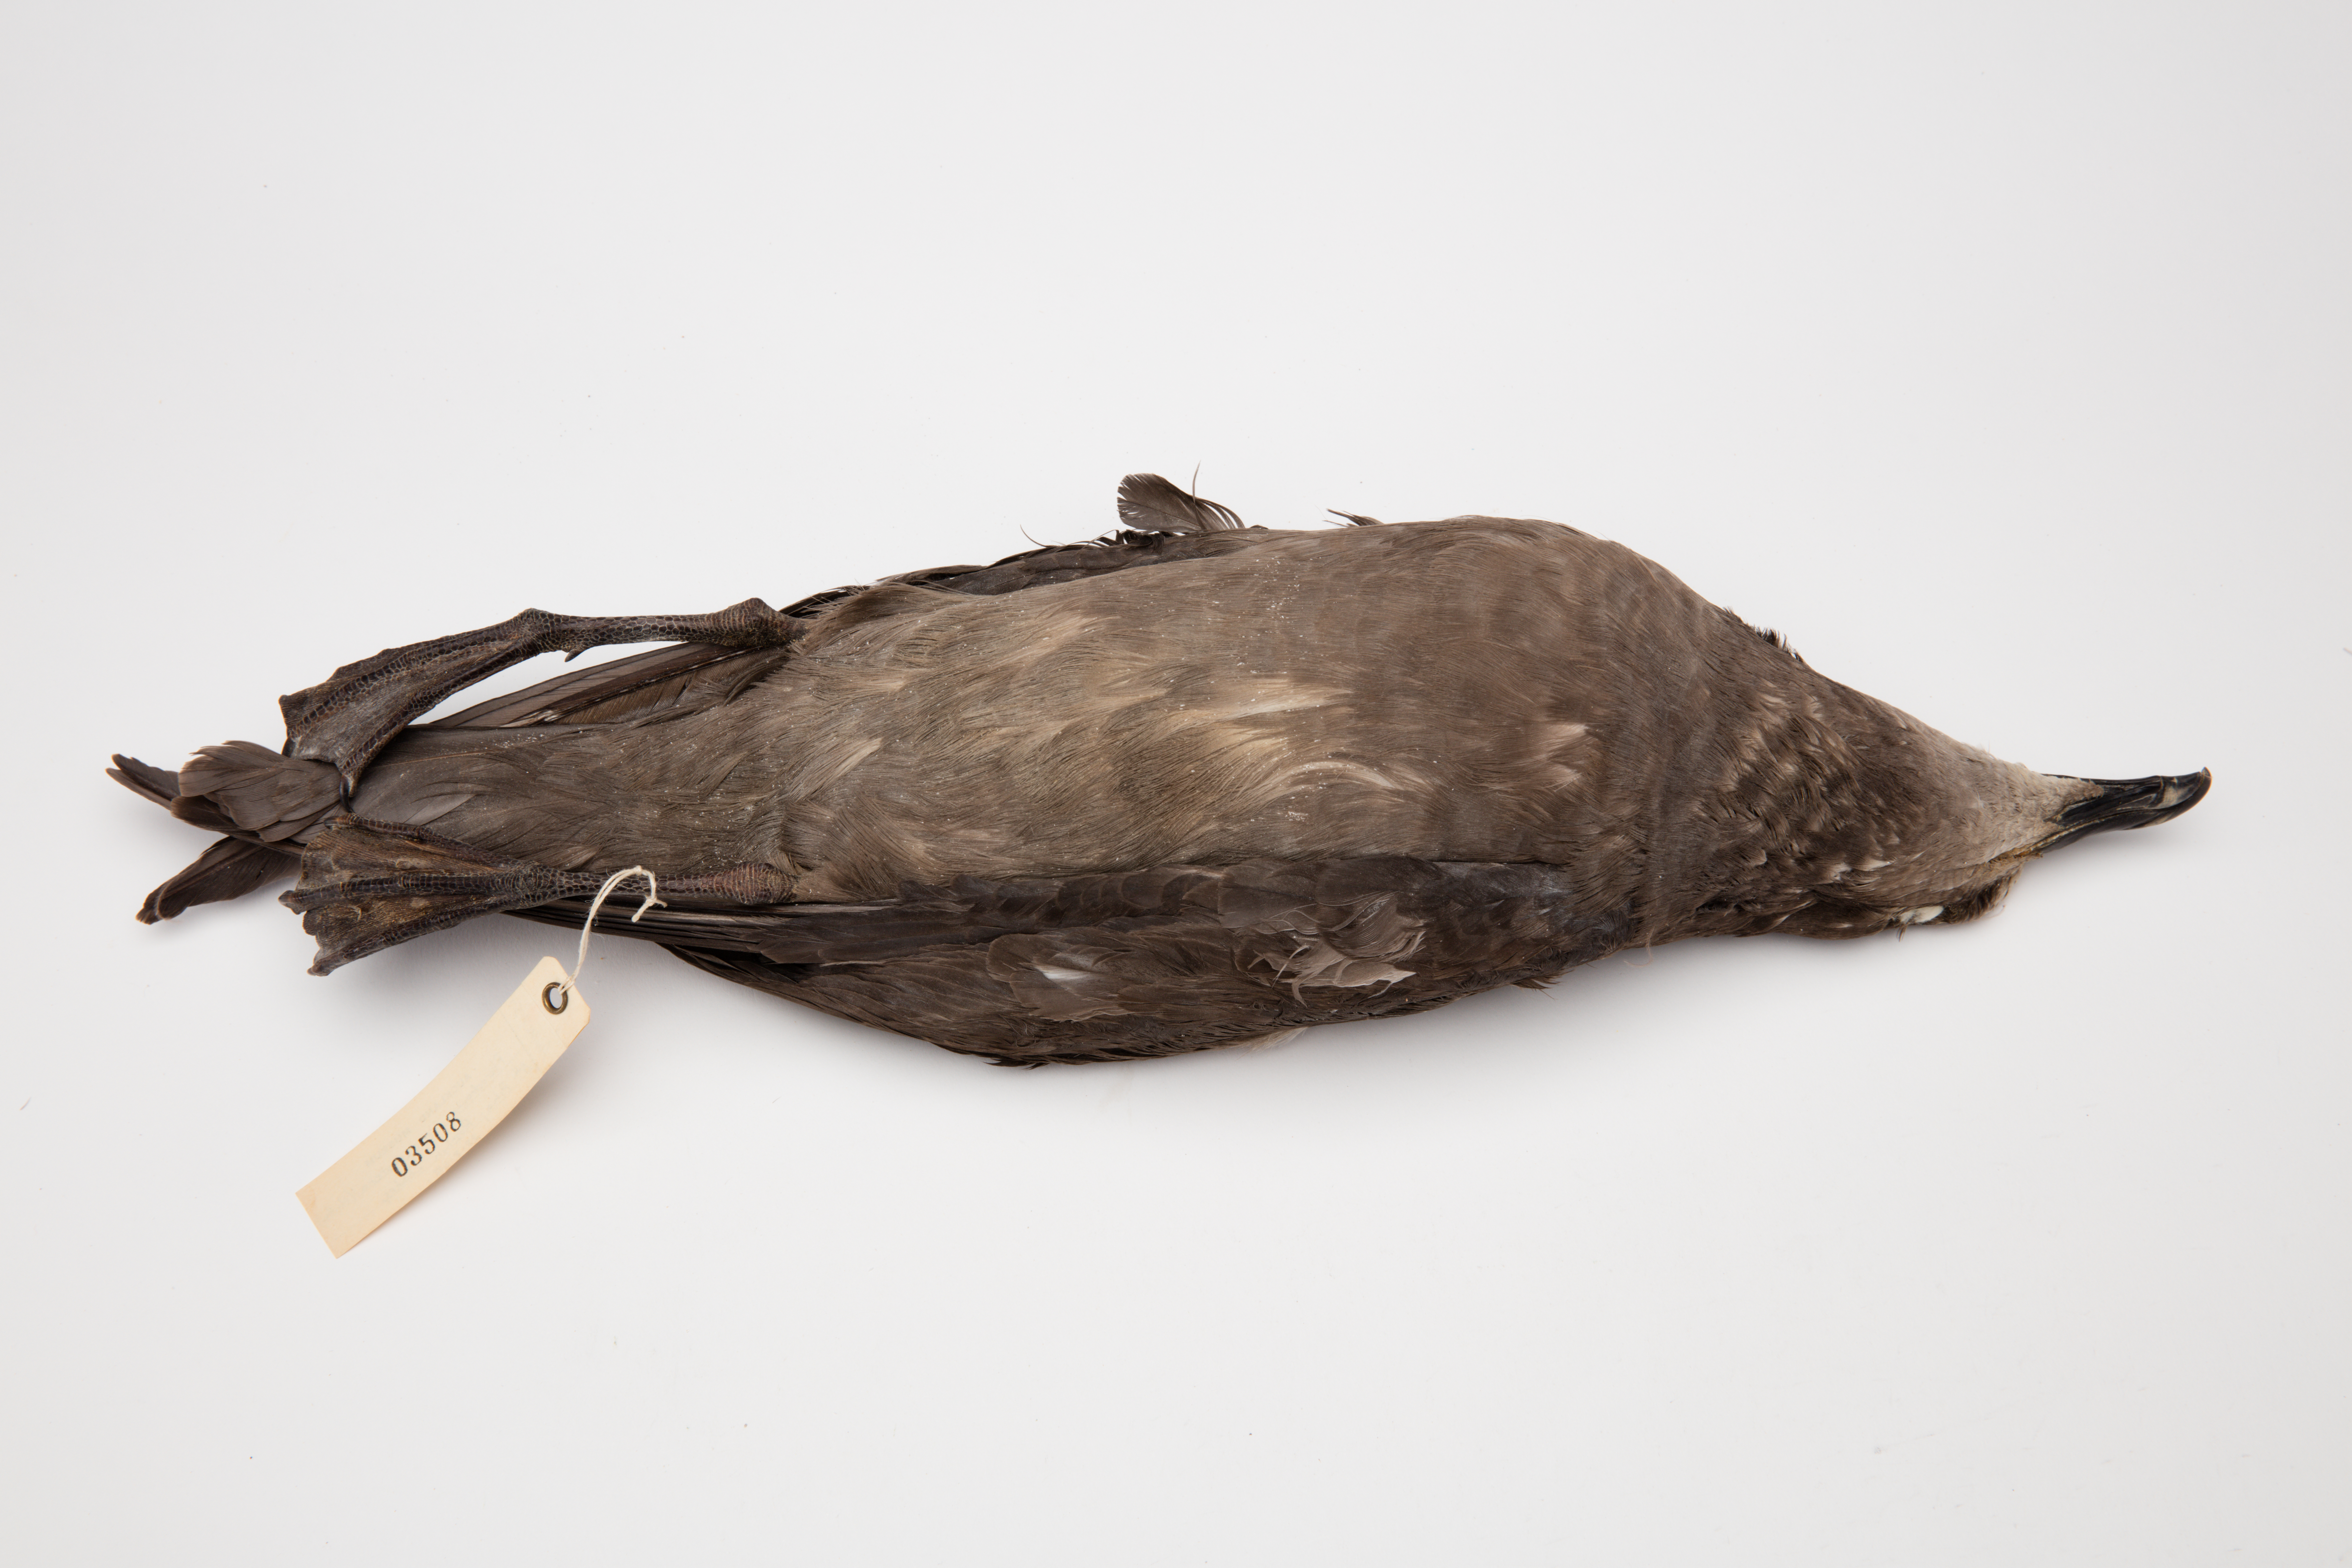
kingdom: Animalia
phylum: Chordata
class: Aves
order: Procellariiformes
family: Procellariidae
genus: Pterodroma
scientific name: Pterodroma macroptera
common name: Great-winged petrel
